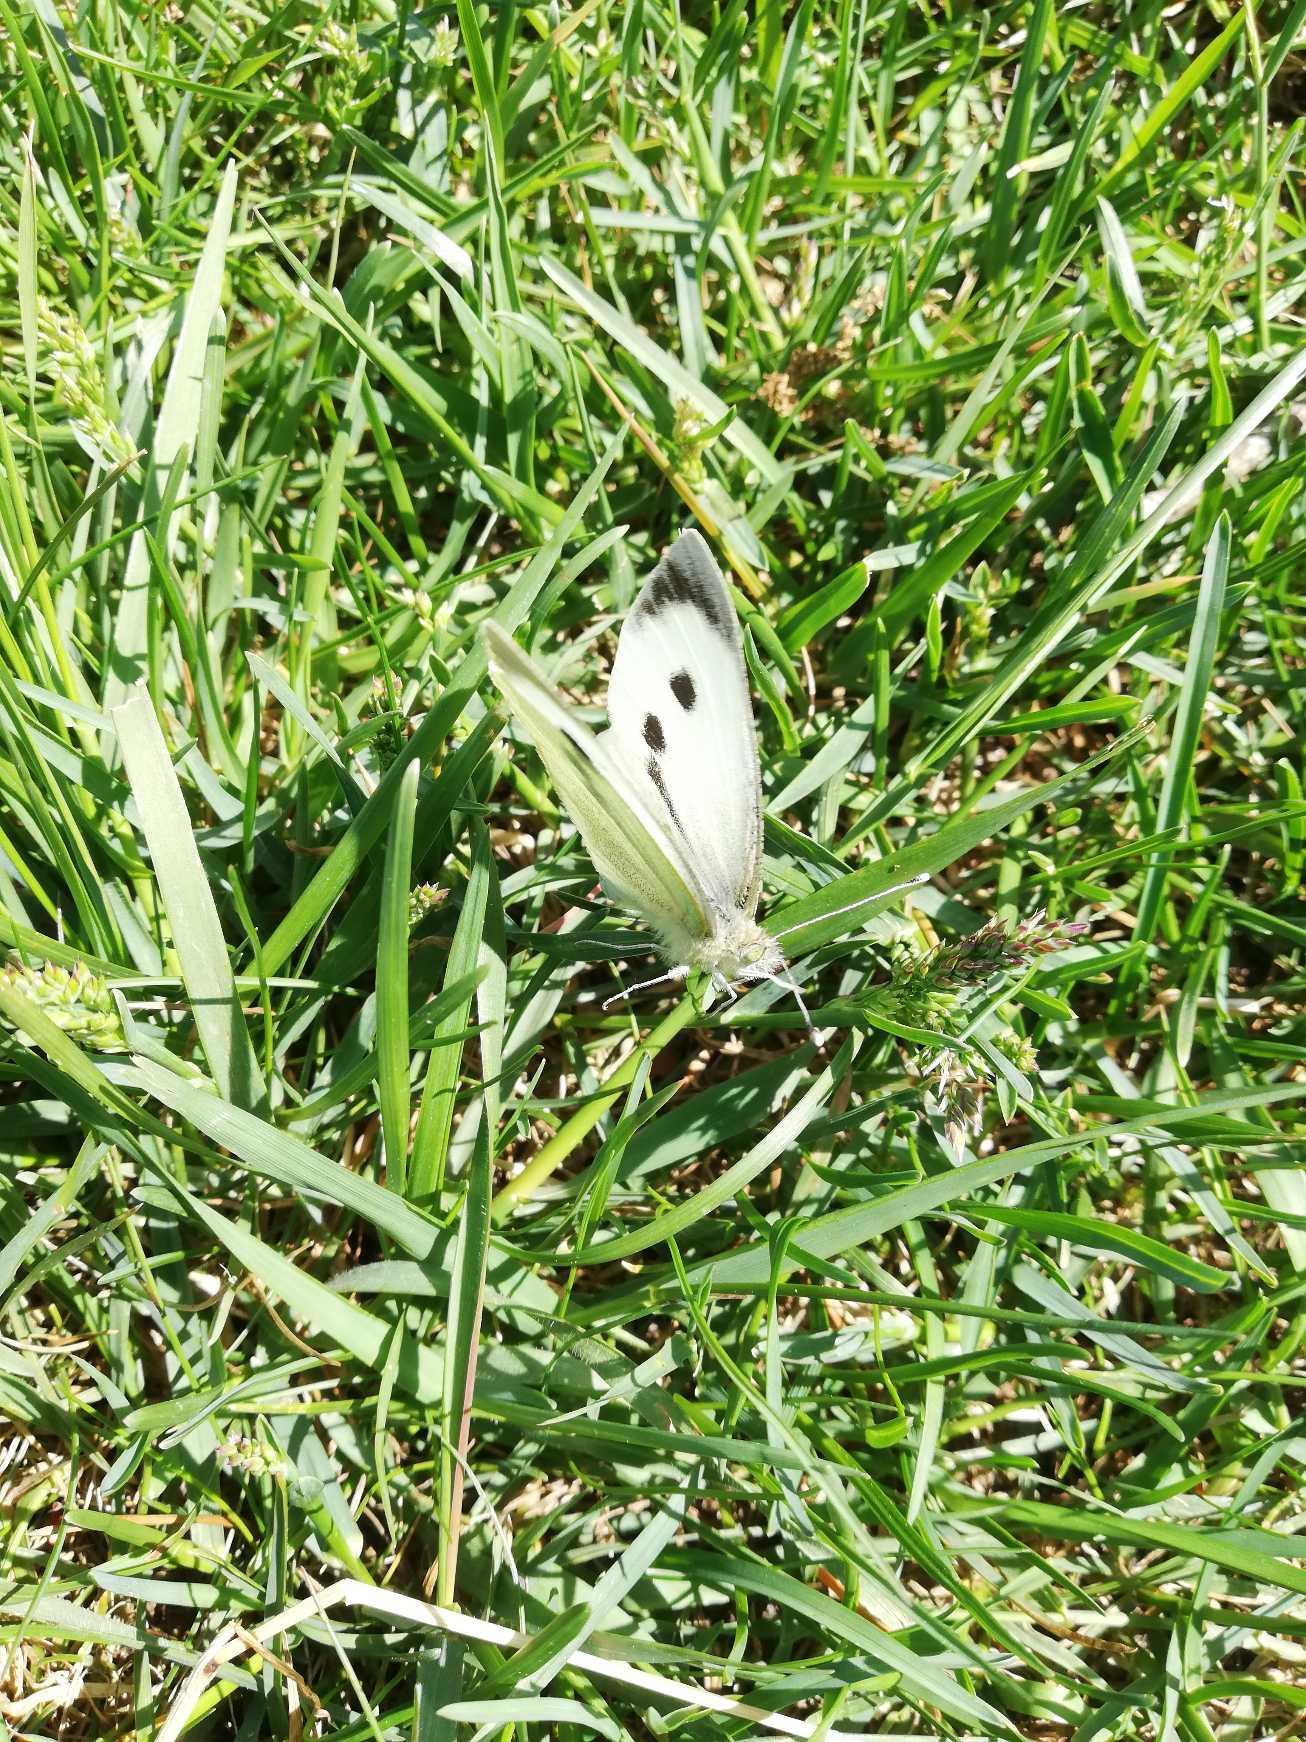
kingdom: Animalia
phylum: Arthropoda
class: Insecta
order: Lepidoptera
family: Pieridae
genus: Pieris
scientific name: Pieris brassicae
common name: Stor kålsommerfugl
